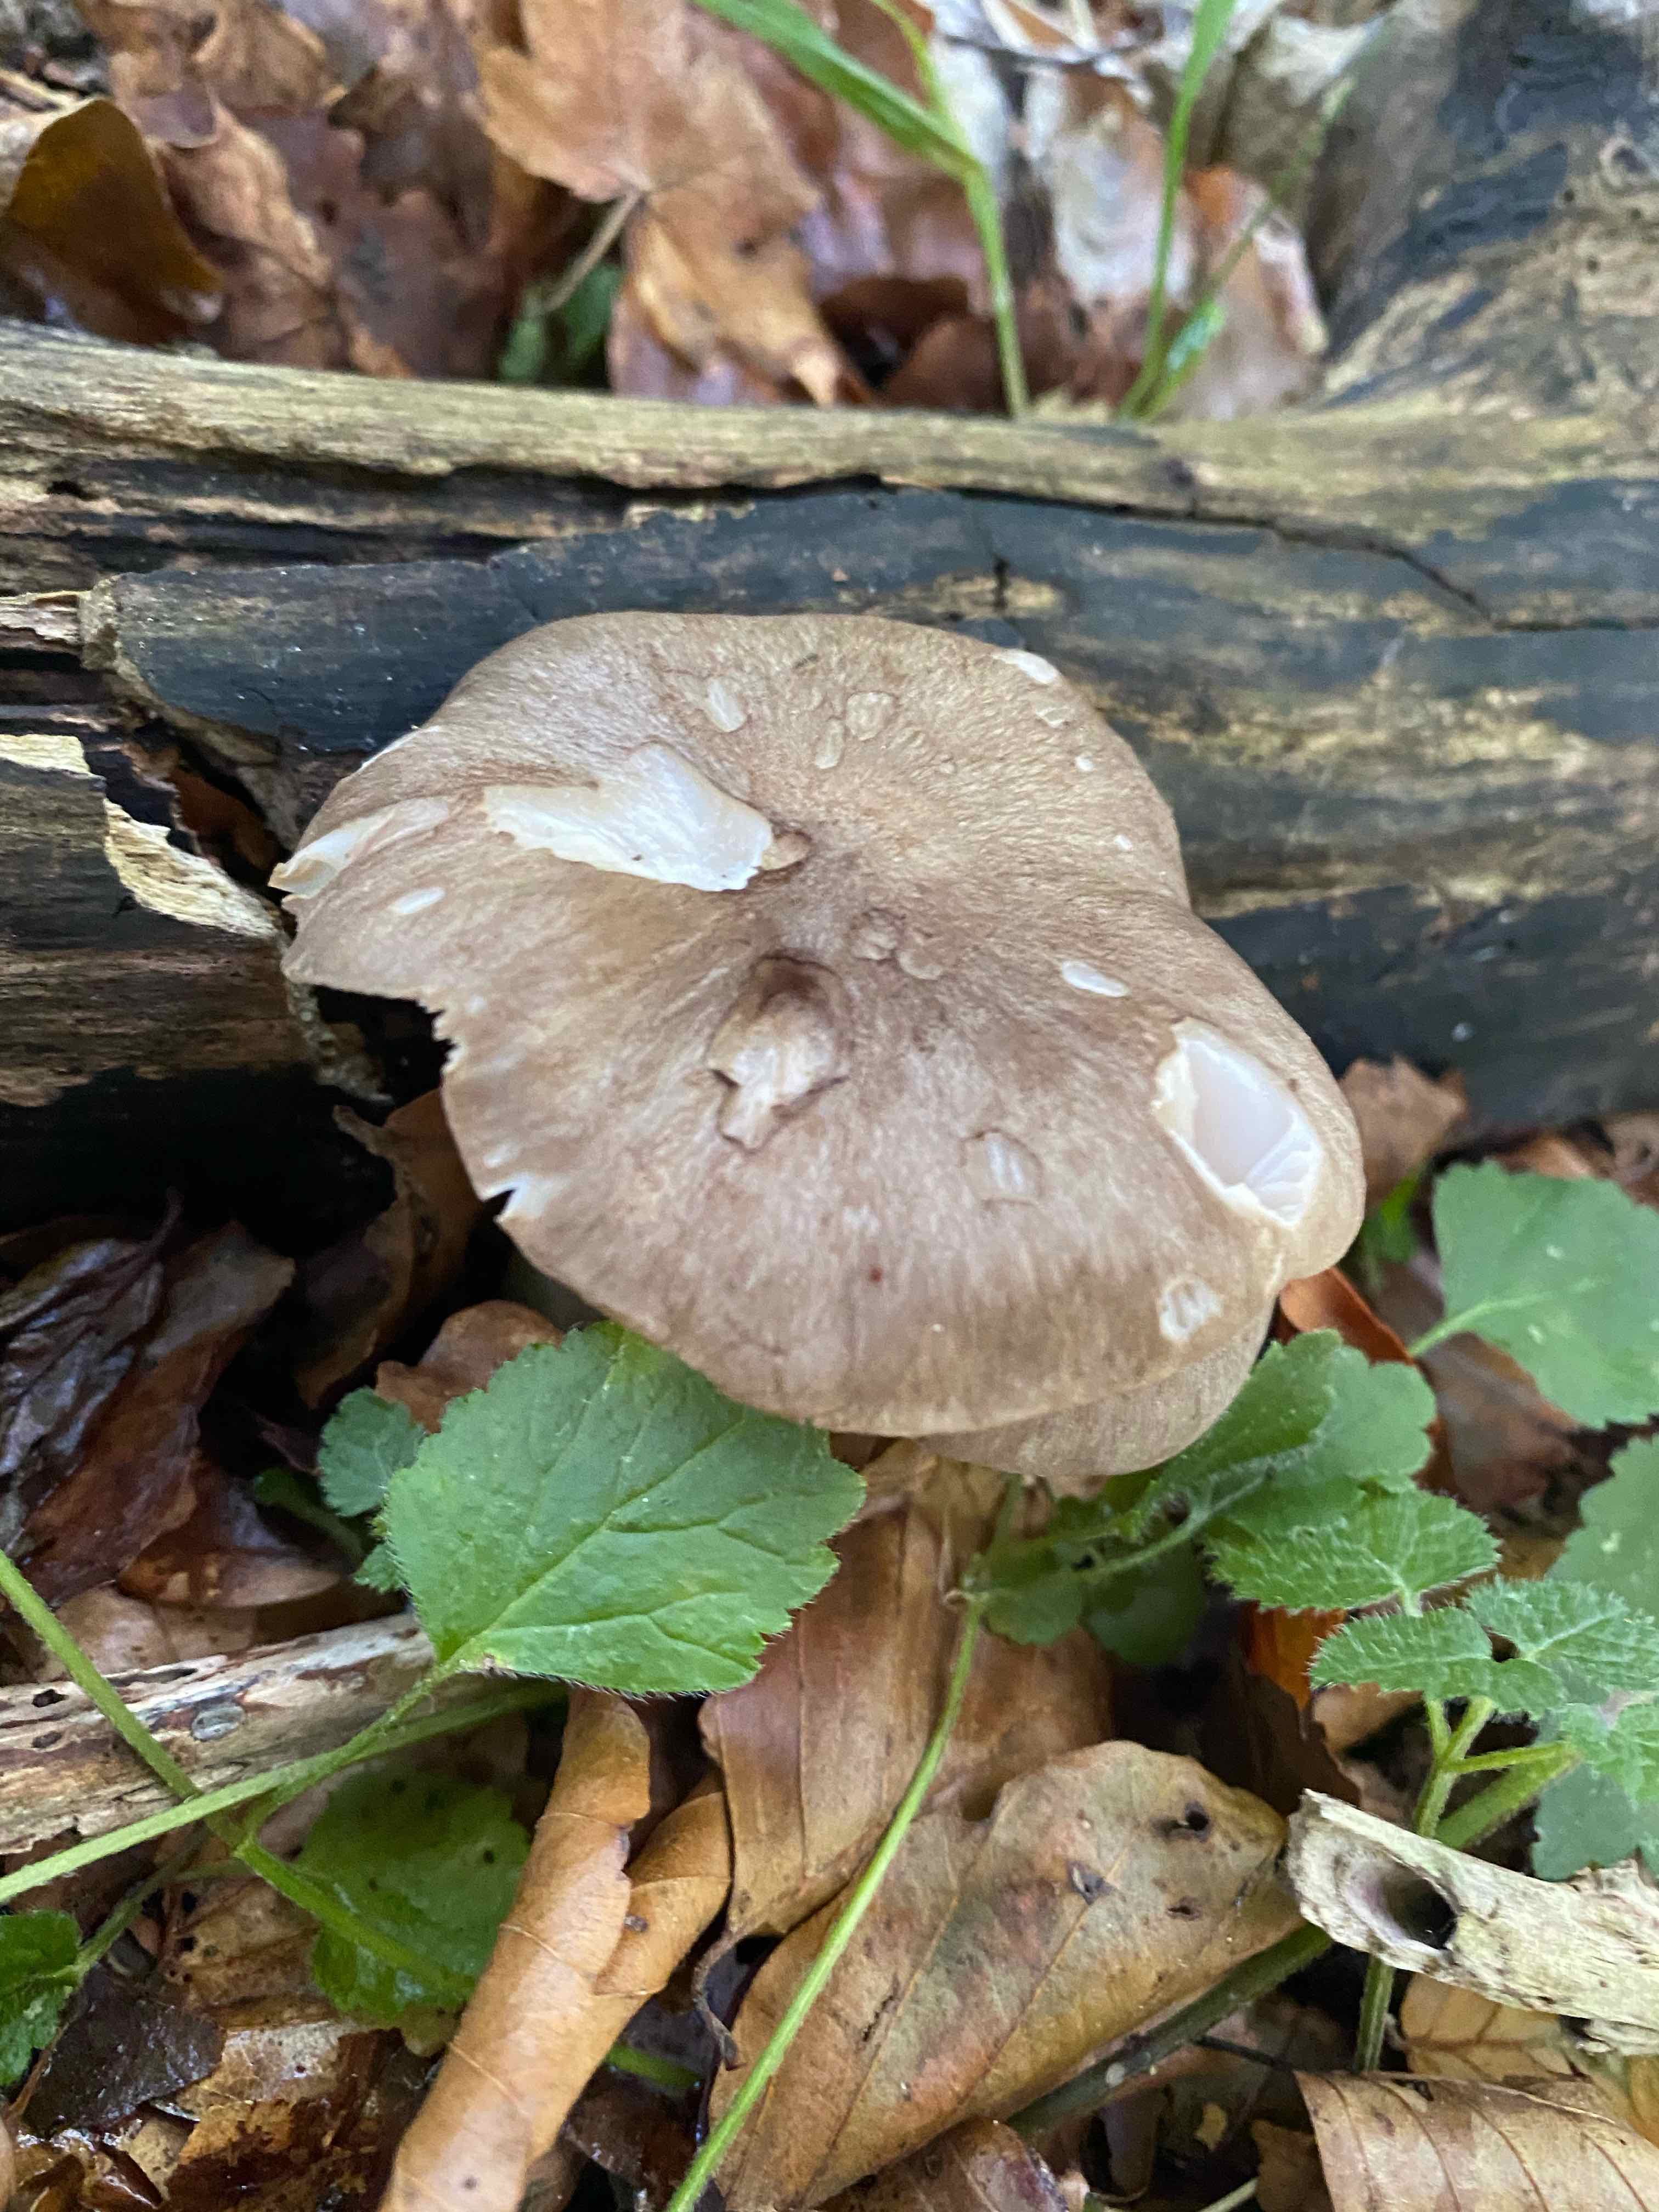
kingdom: Fungi
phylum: Basidiomycota
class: Agaricomycetes
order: Agaricales
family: Tricholomataceae
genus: Megacollybia
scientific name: Megacollybia platyphylla
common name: bredbladet væbnerhat
